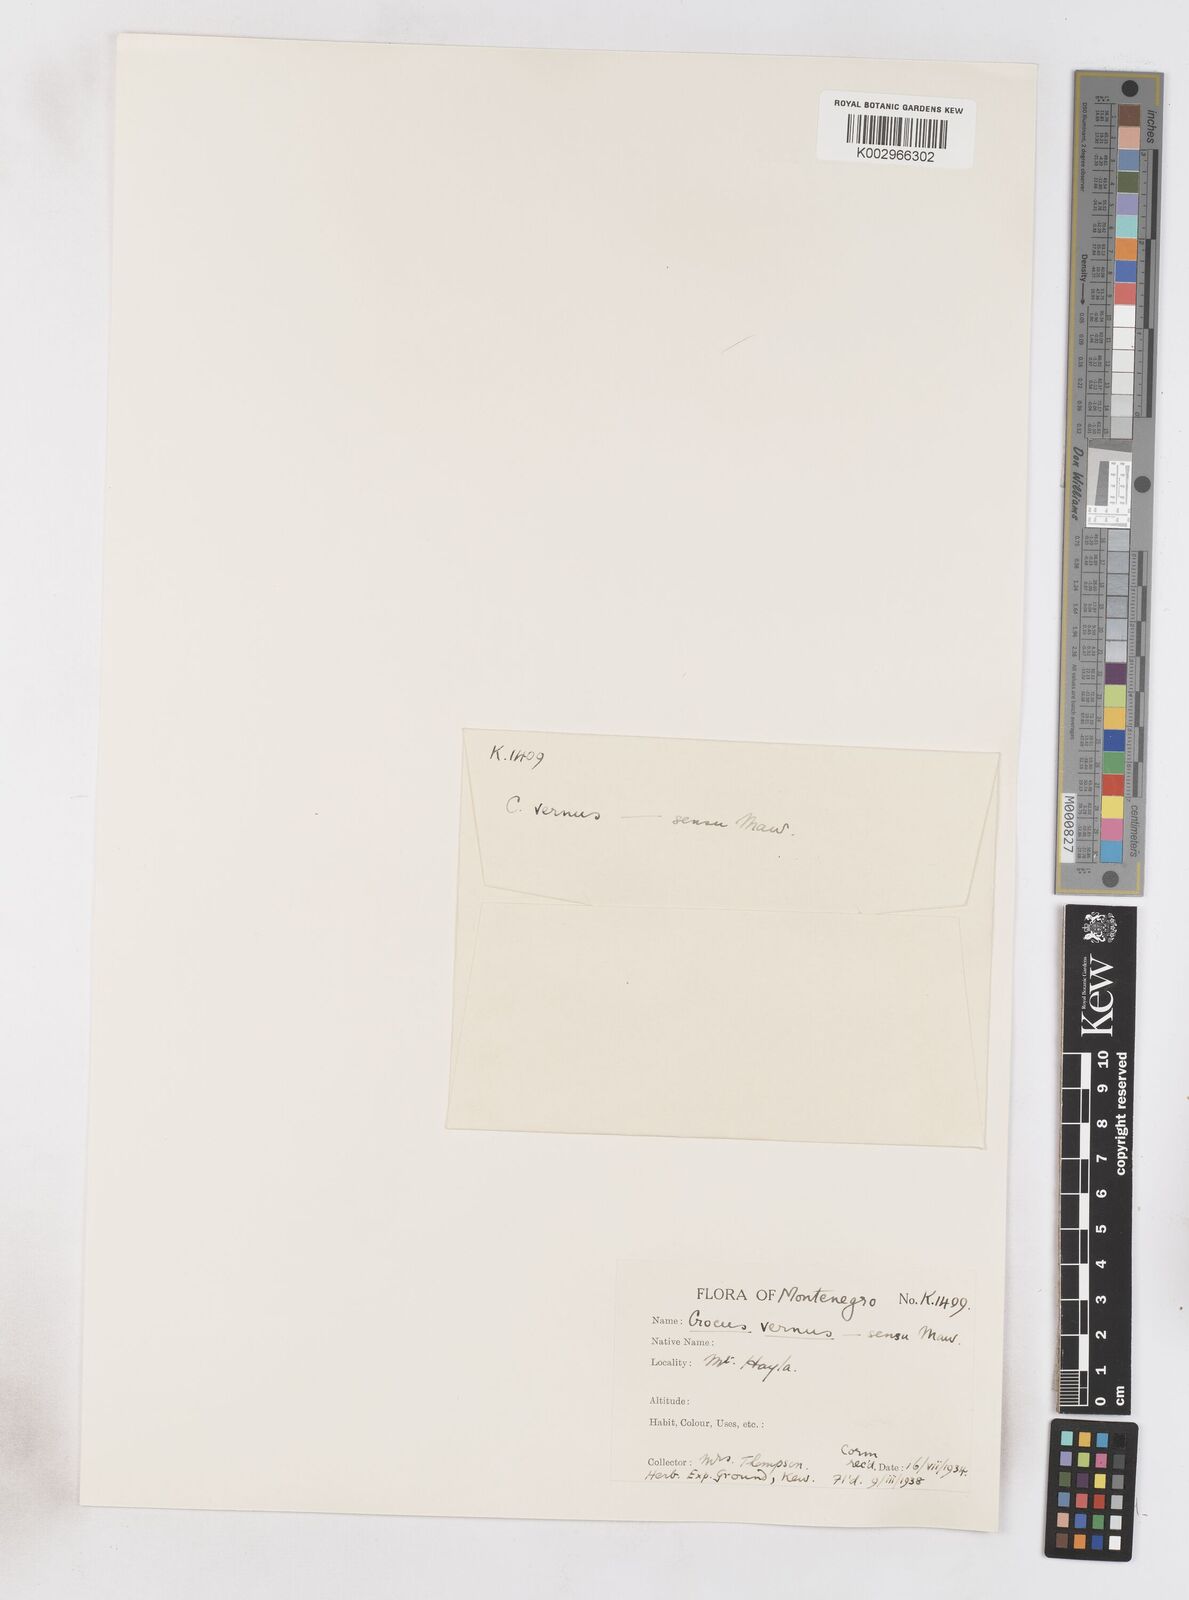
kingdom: Plantae
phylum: Tracheophyta
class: Liliopsida
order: Asparagales
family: Iridaceae
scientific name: Iridaceae
